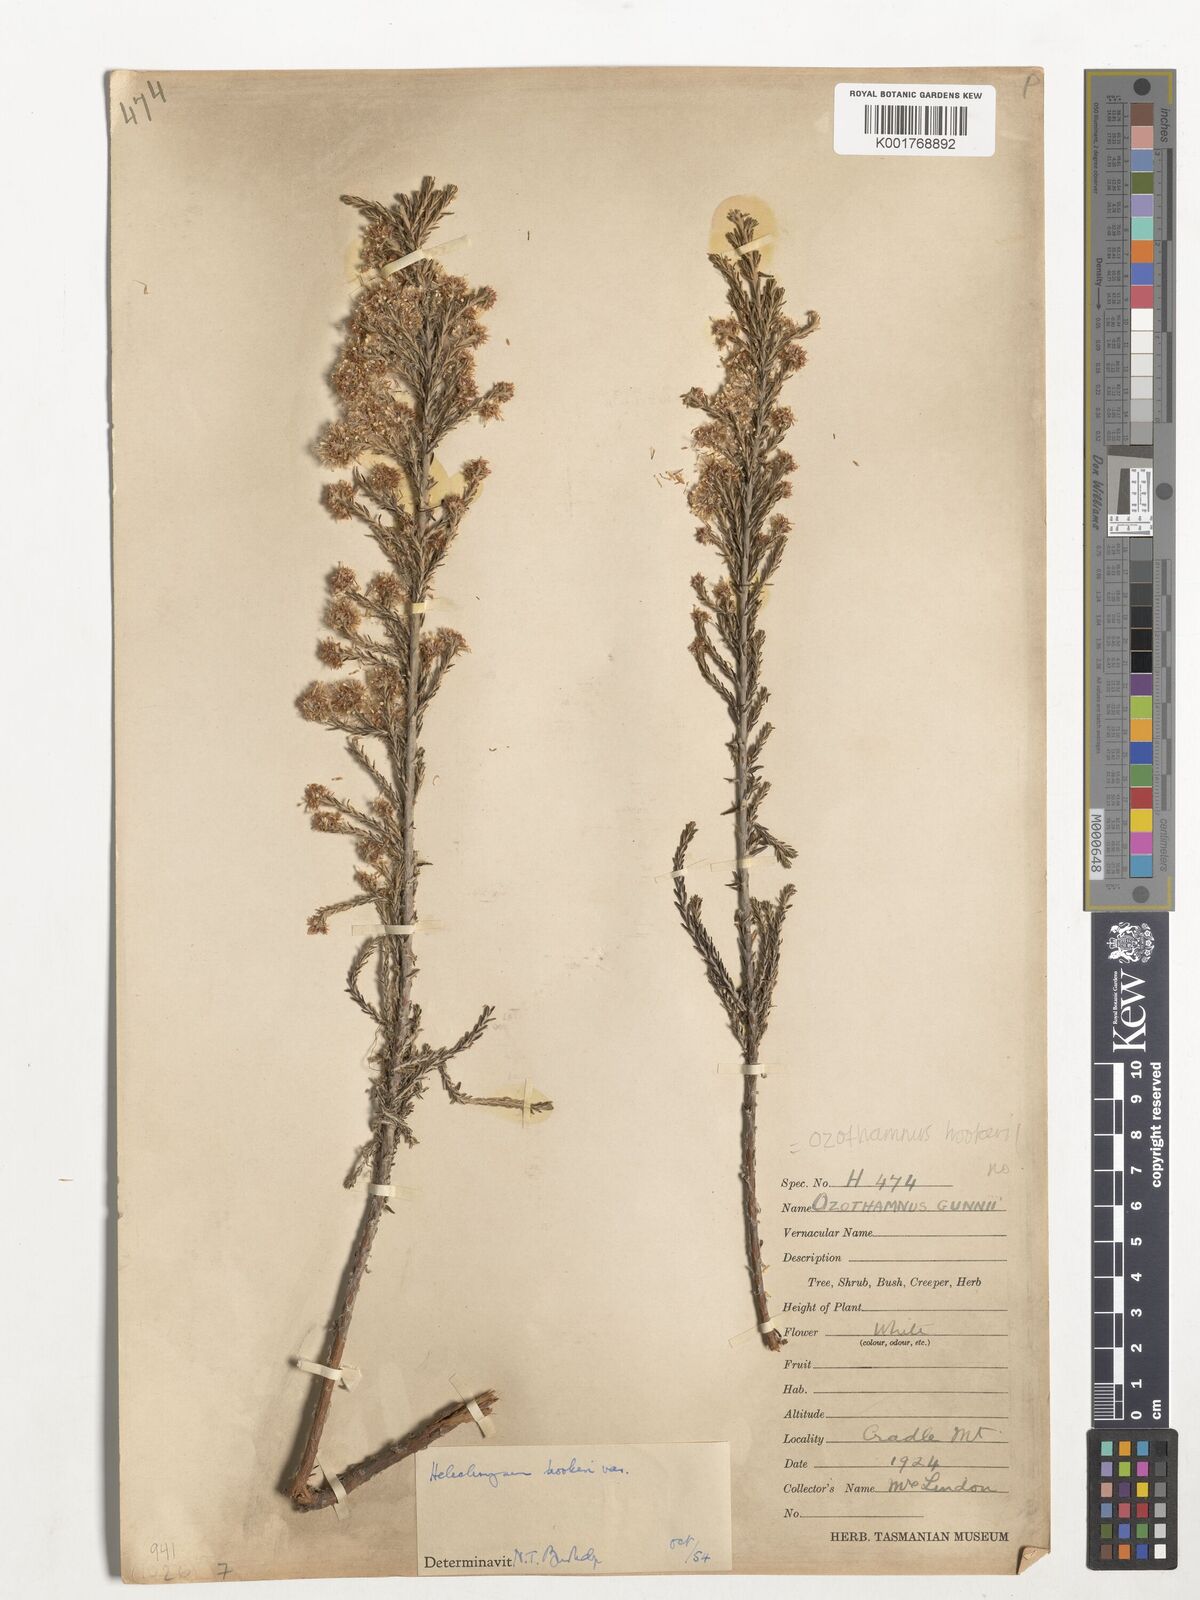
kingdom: Plantae
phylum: Tracheophyta
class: Magnoliopsida
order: Asterales
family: Asteraceae
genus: Ozothamnus
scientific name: Ozothamnus hookeri
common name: Kerosene-bush
